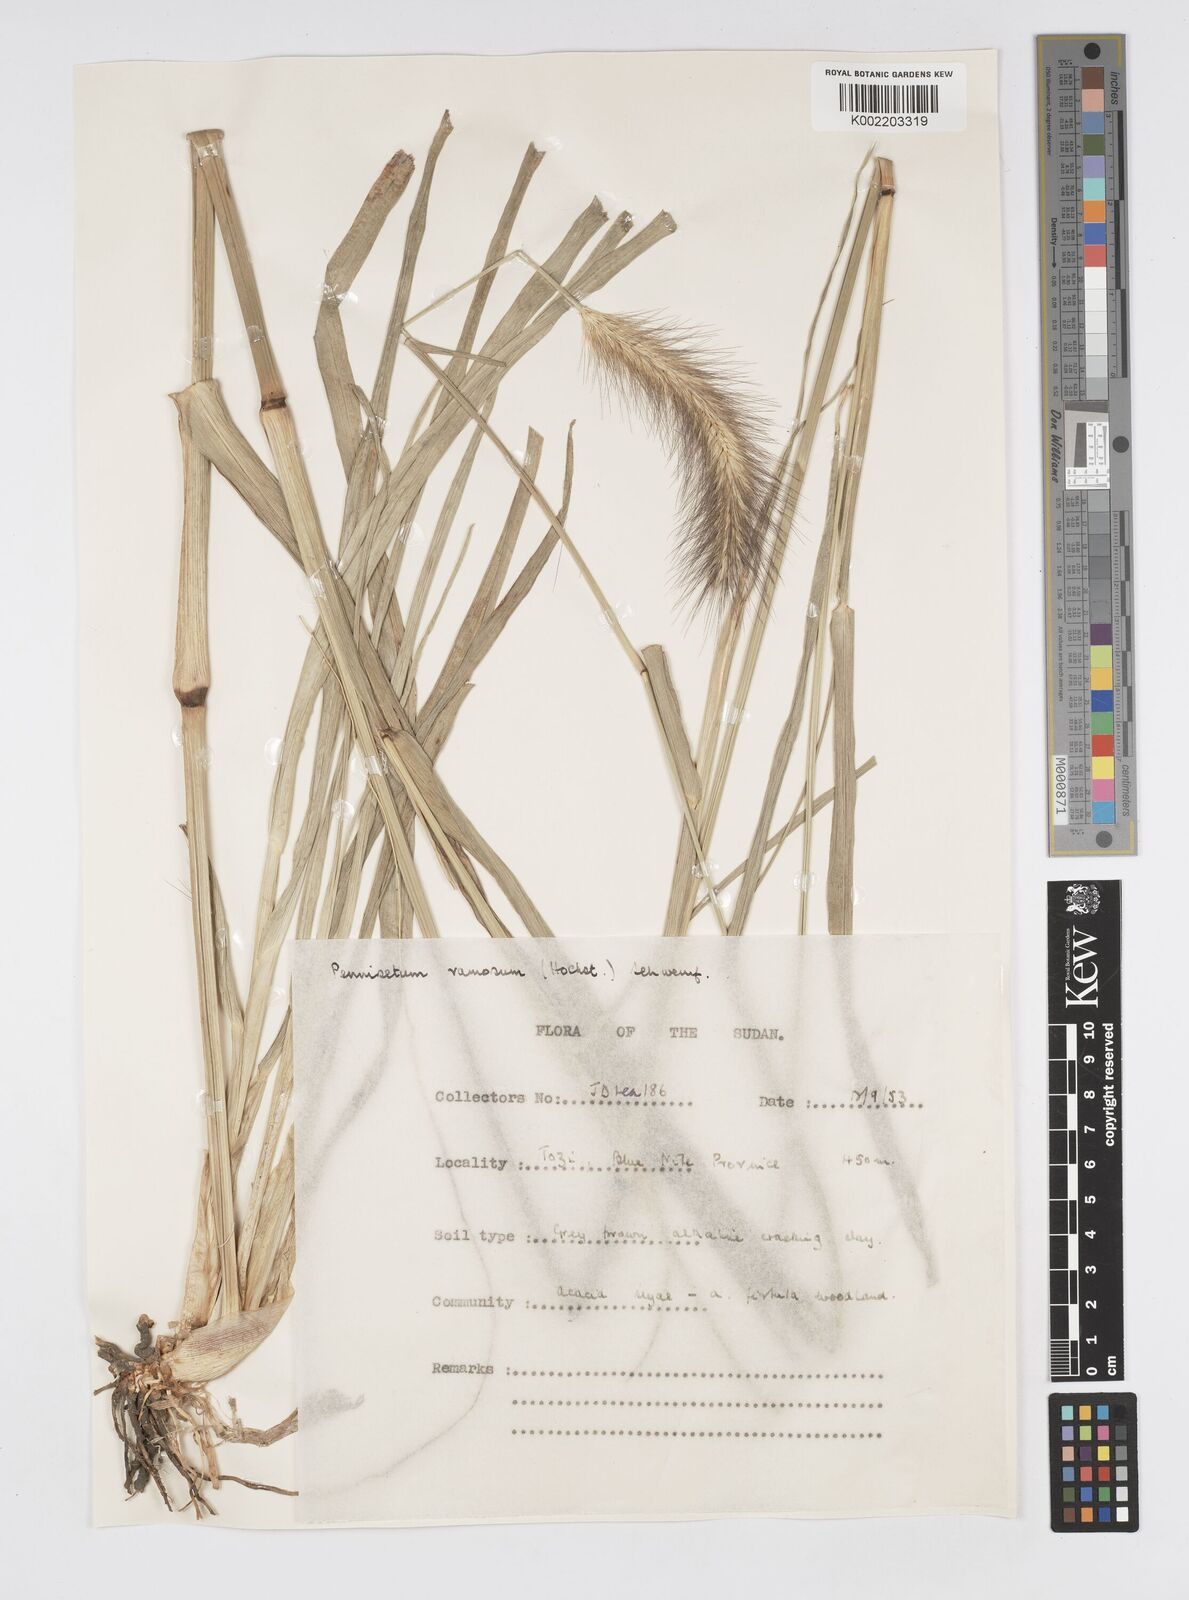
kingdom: Plantae
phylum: Tracheophyta
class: Liliopsida
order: Poales
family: Poaceae
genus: Cenchrus
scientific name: Cenchrus ramosus
